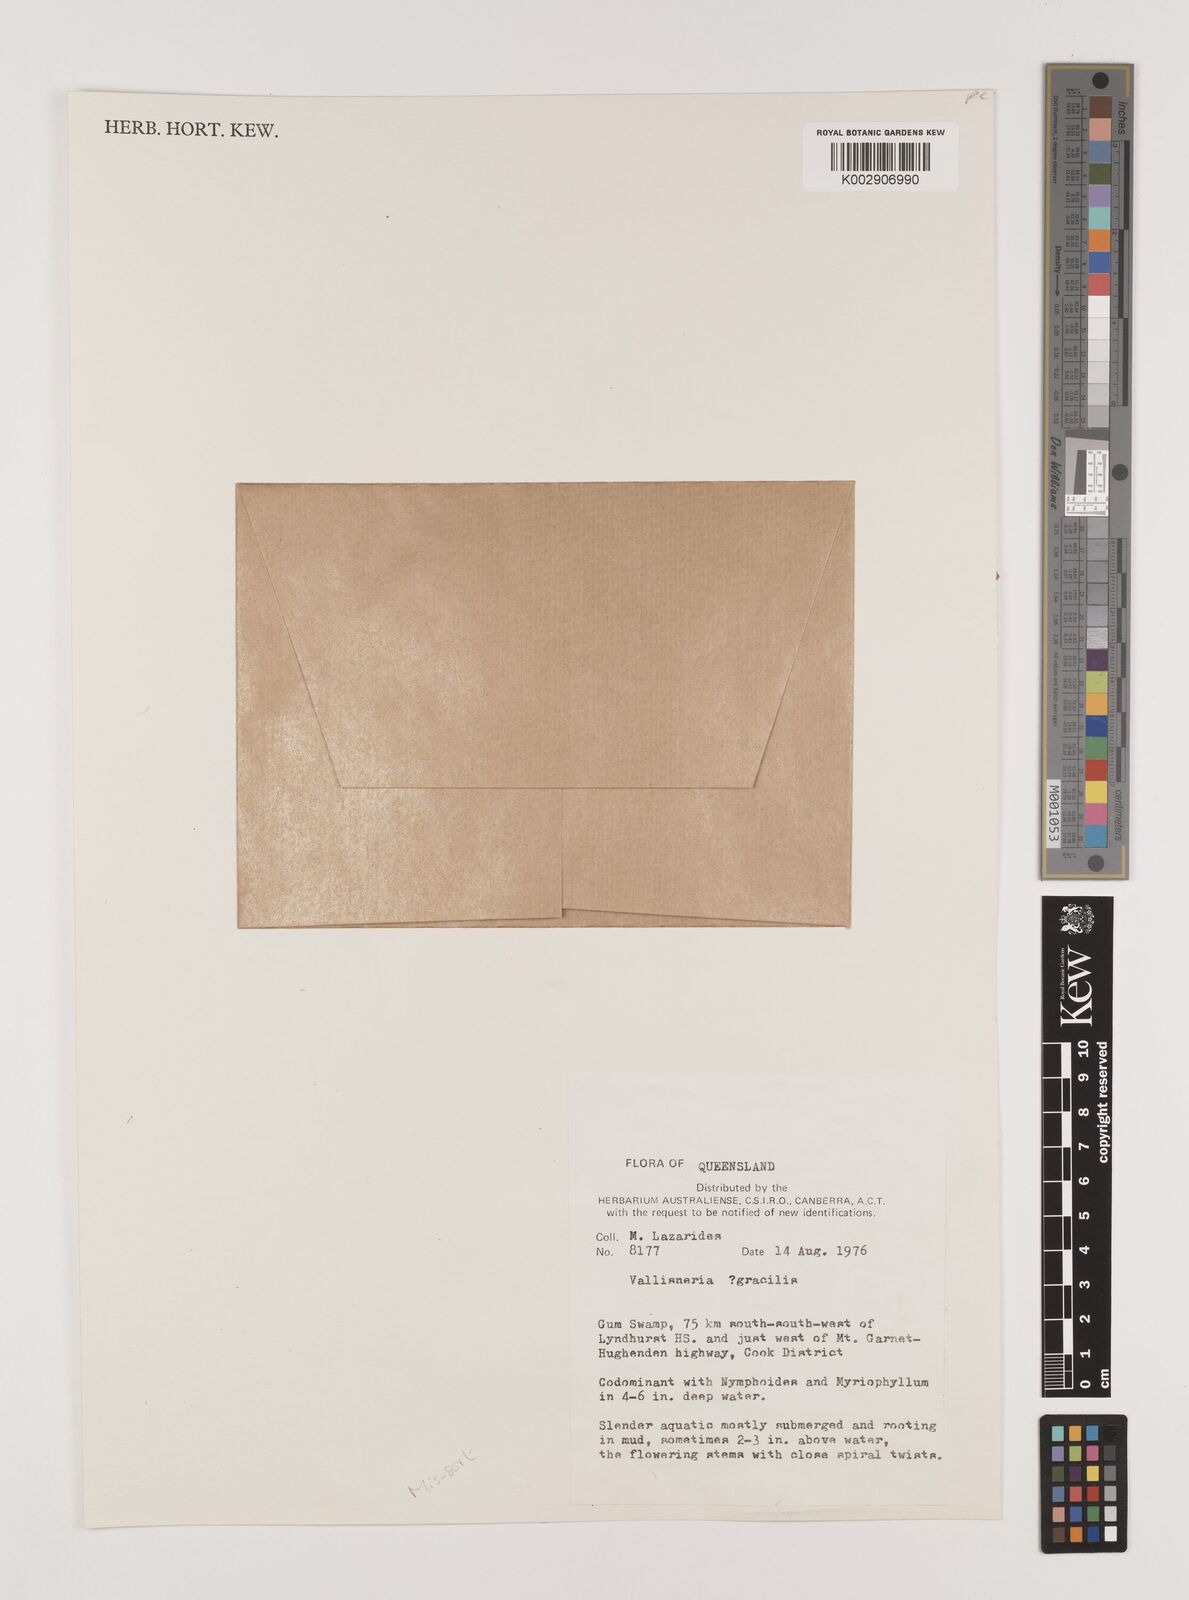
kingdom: Plantae
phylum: Tracheophyta
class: Liliopsida
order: Alismatales
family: Hydrocharitaceae
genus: Vallisneria
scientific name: Vallisneria nana
